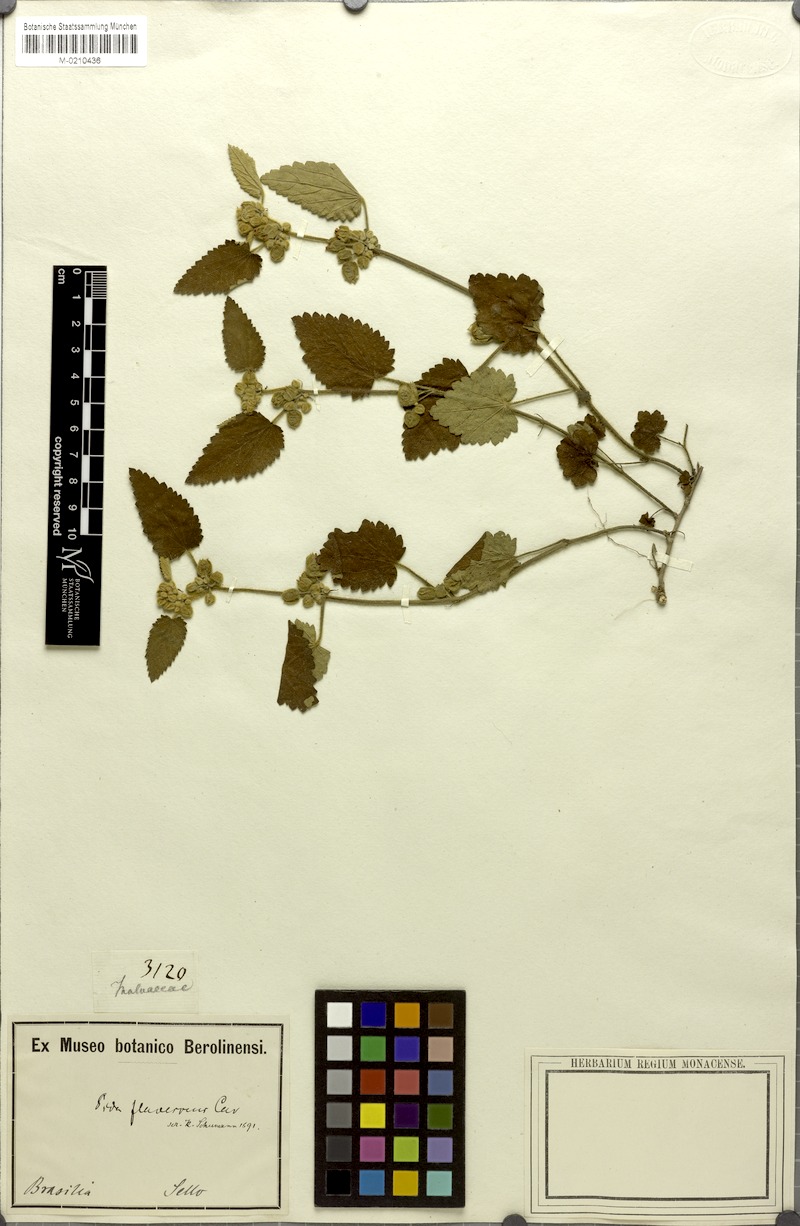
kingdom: Plantae
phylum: Tracheophyta
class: Magnoliopsida
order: Malvales
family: Malvaceae
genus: Krapovickasia
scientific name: Krapovickasia flavescens
